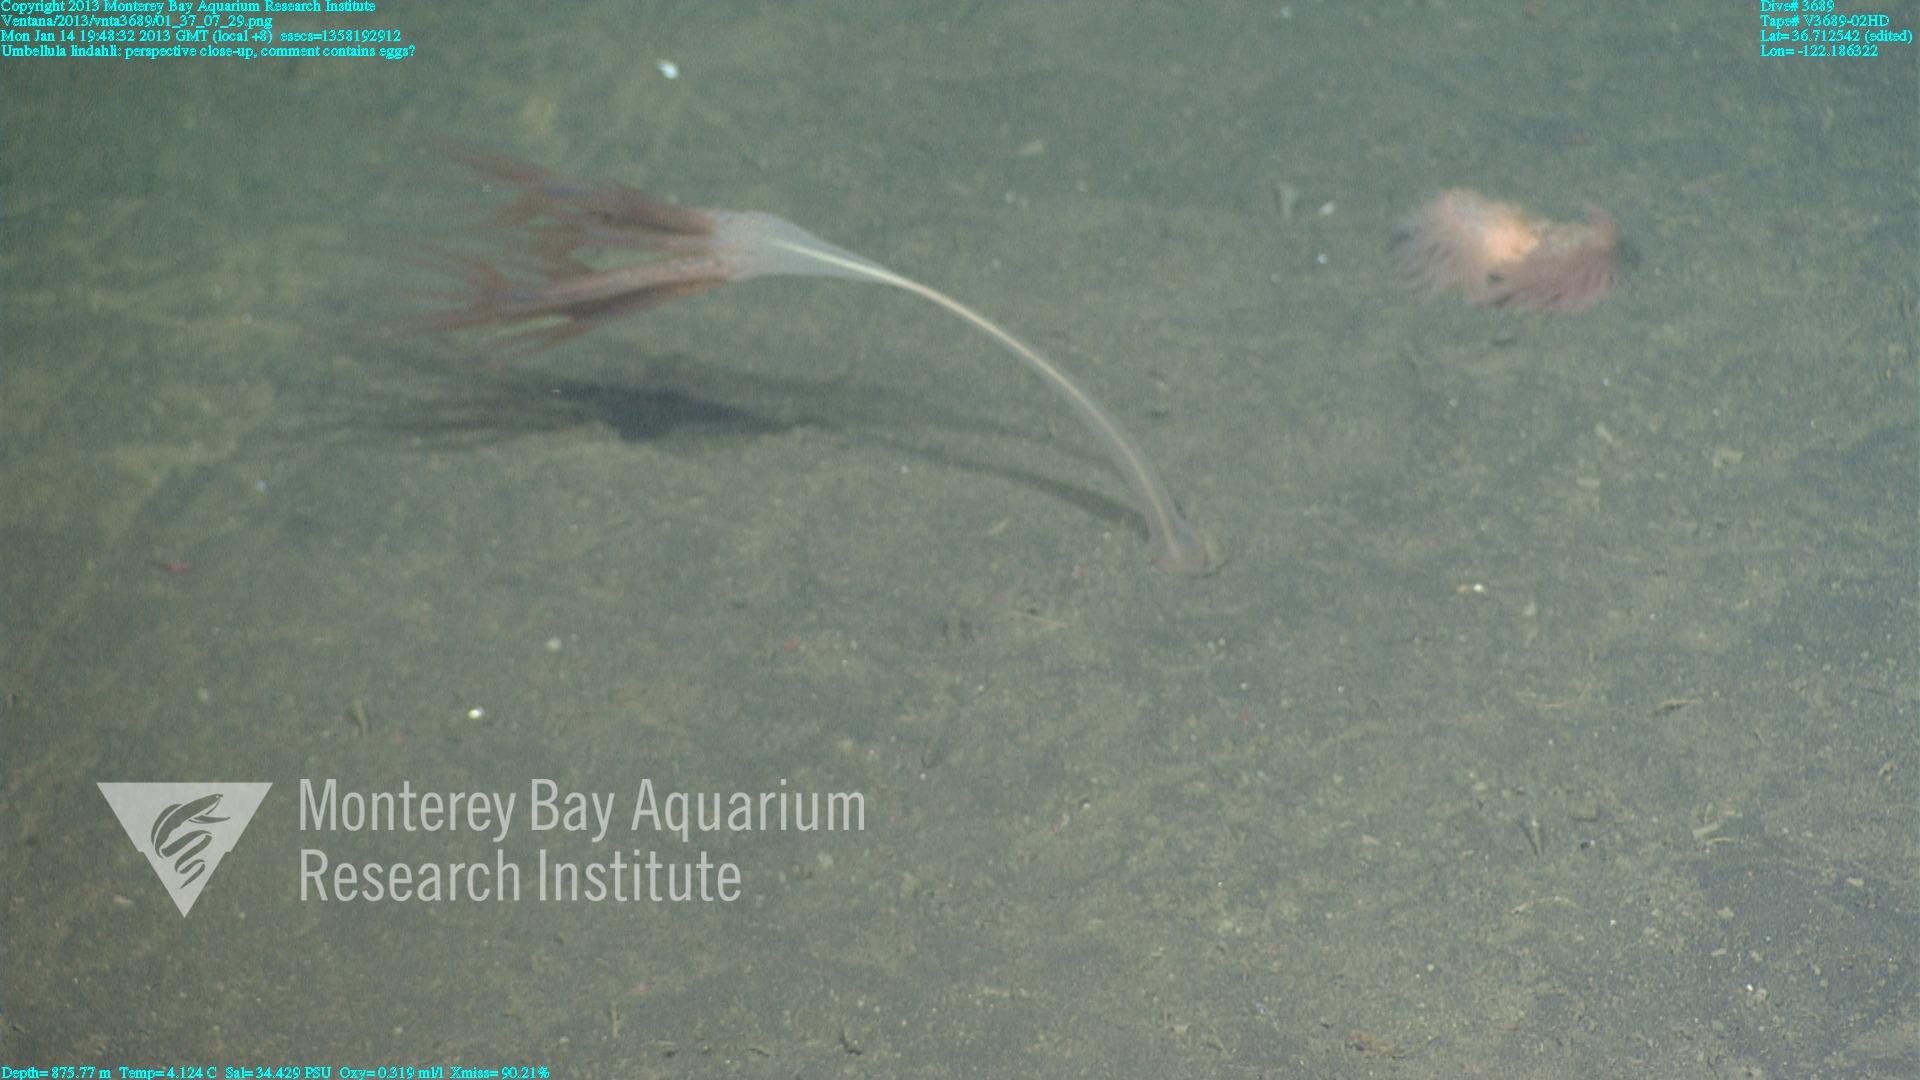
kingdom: Animalia
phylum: Cnidaria
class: Anthozoa
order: Scleralcyonacea
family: Umbellulidae
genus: Umbellula
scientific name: Umbellula lindahli
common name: Lindahl's droopy sea pen
